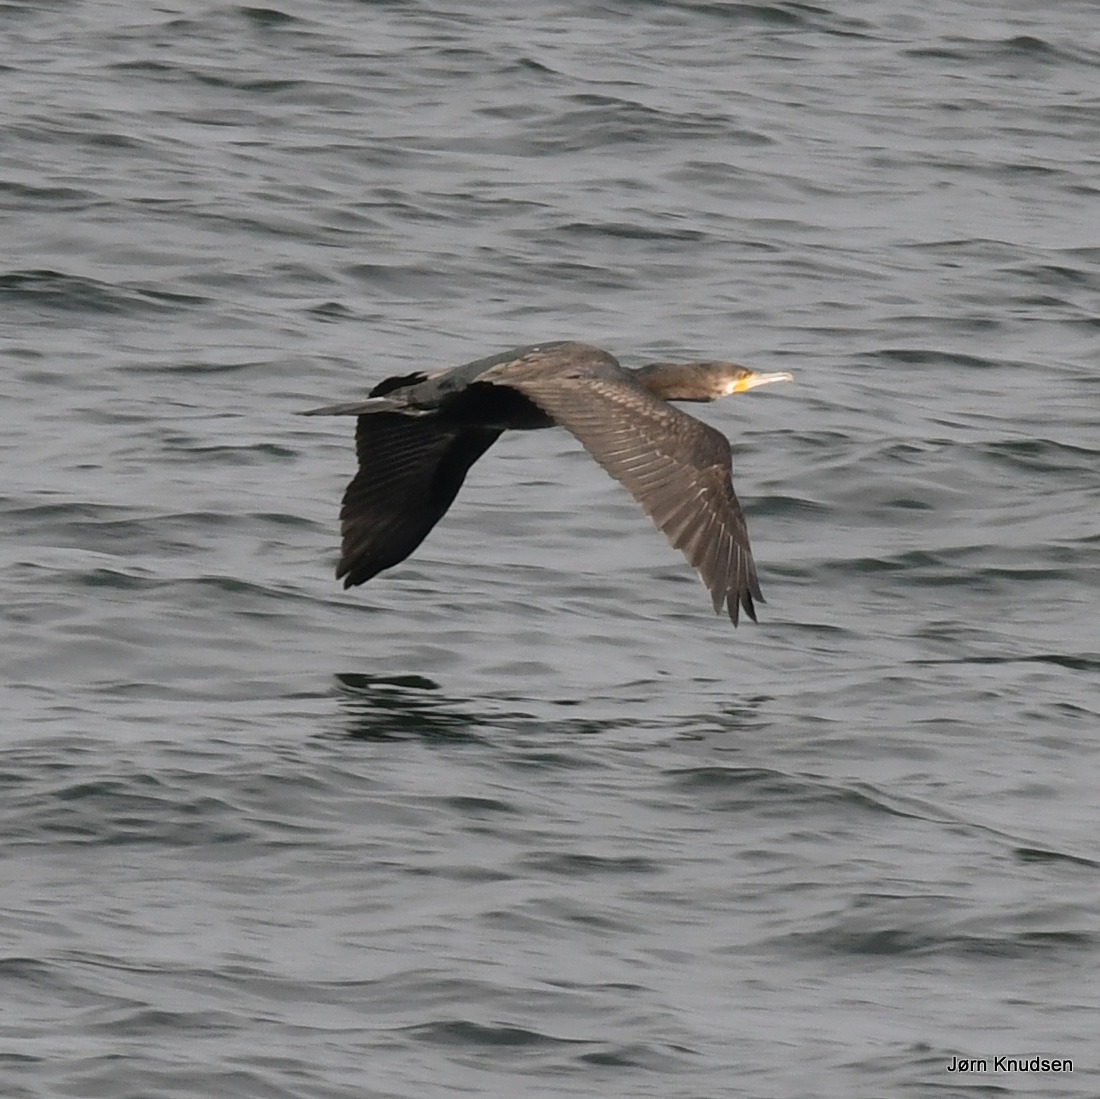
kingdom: Animalia
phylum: Chordata
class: Aves
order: Suliformes
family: Phalacrocoracidae
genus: Phalacrocorax
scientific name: Phalacrocorax carbo
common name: Skarv
